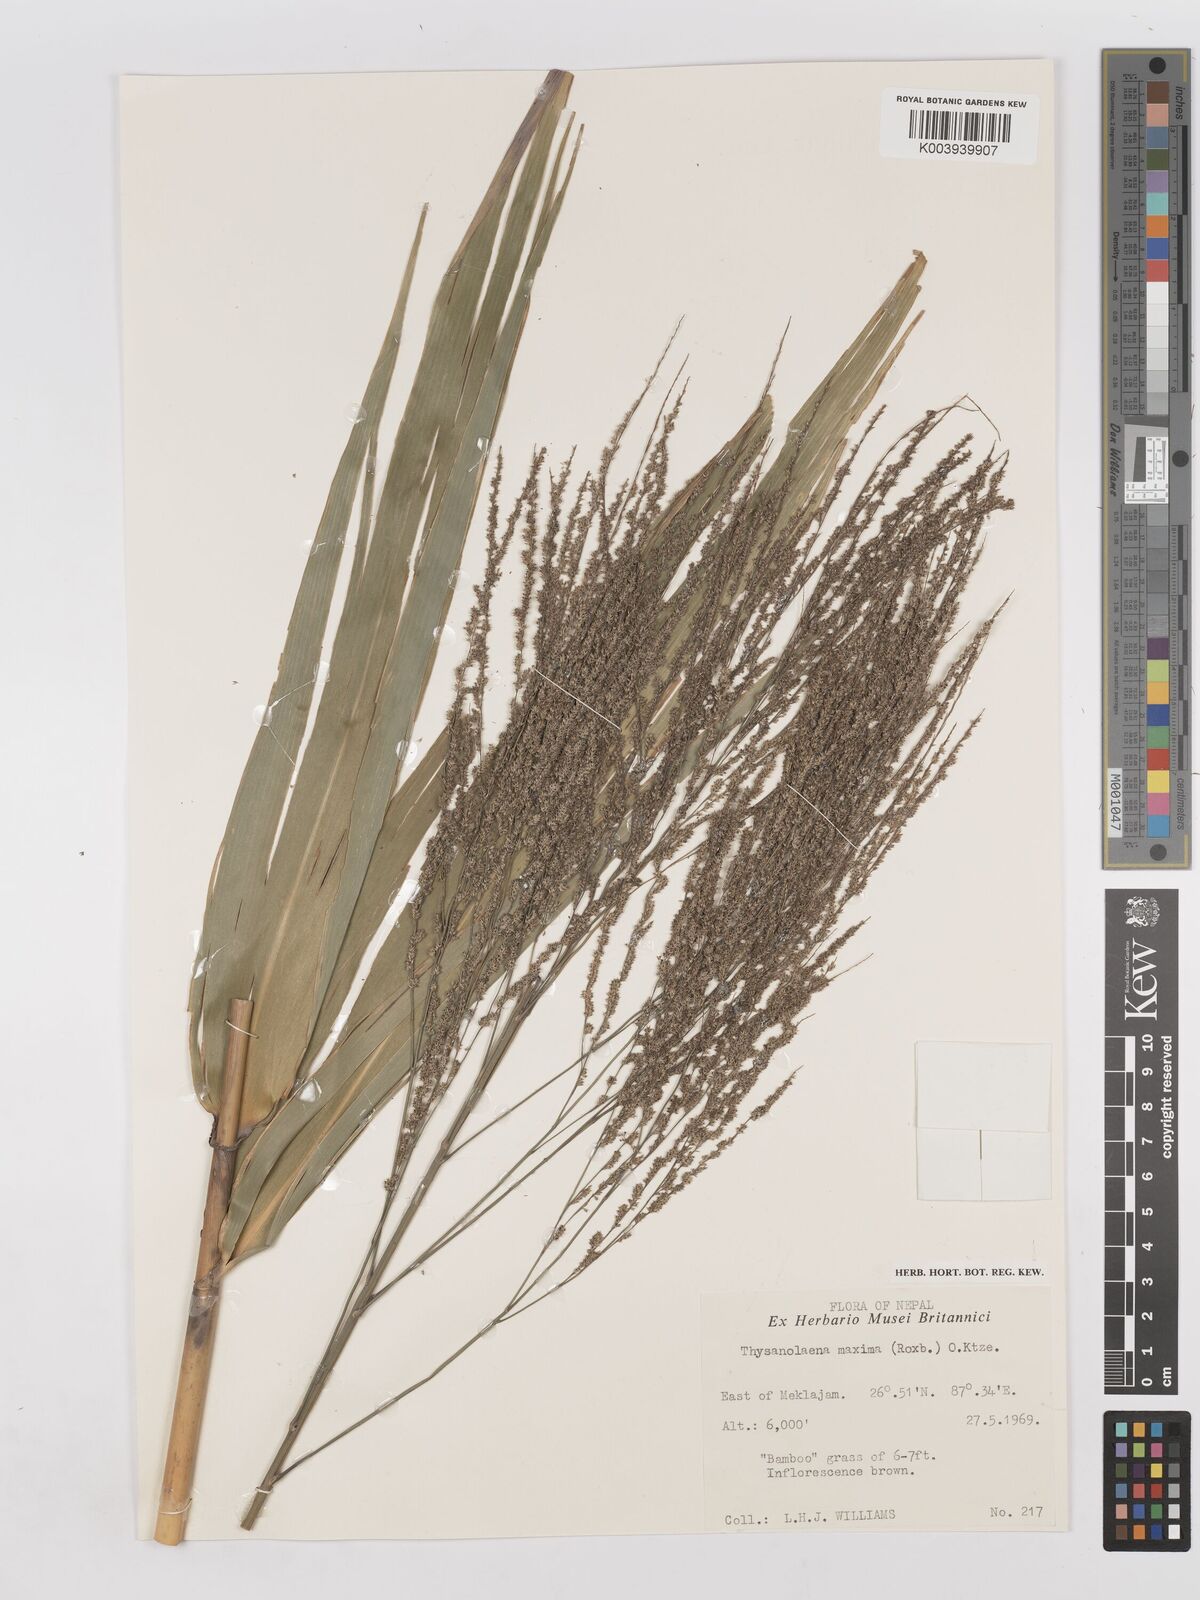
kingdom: Plantae
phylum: Tracheophyta
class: Liliopsida
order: Poales
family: Poaceae
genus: Thysanolaena
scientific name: Thysanolaena latifolia
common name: Tiger grass
